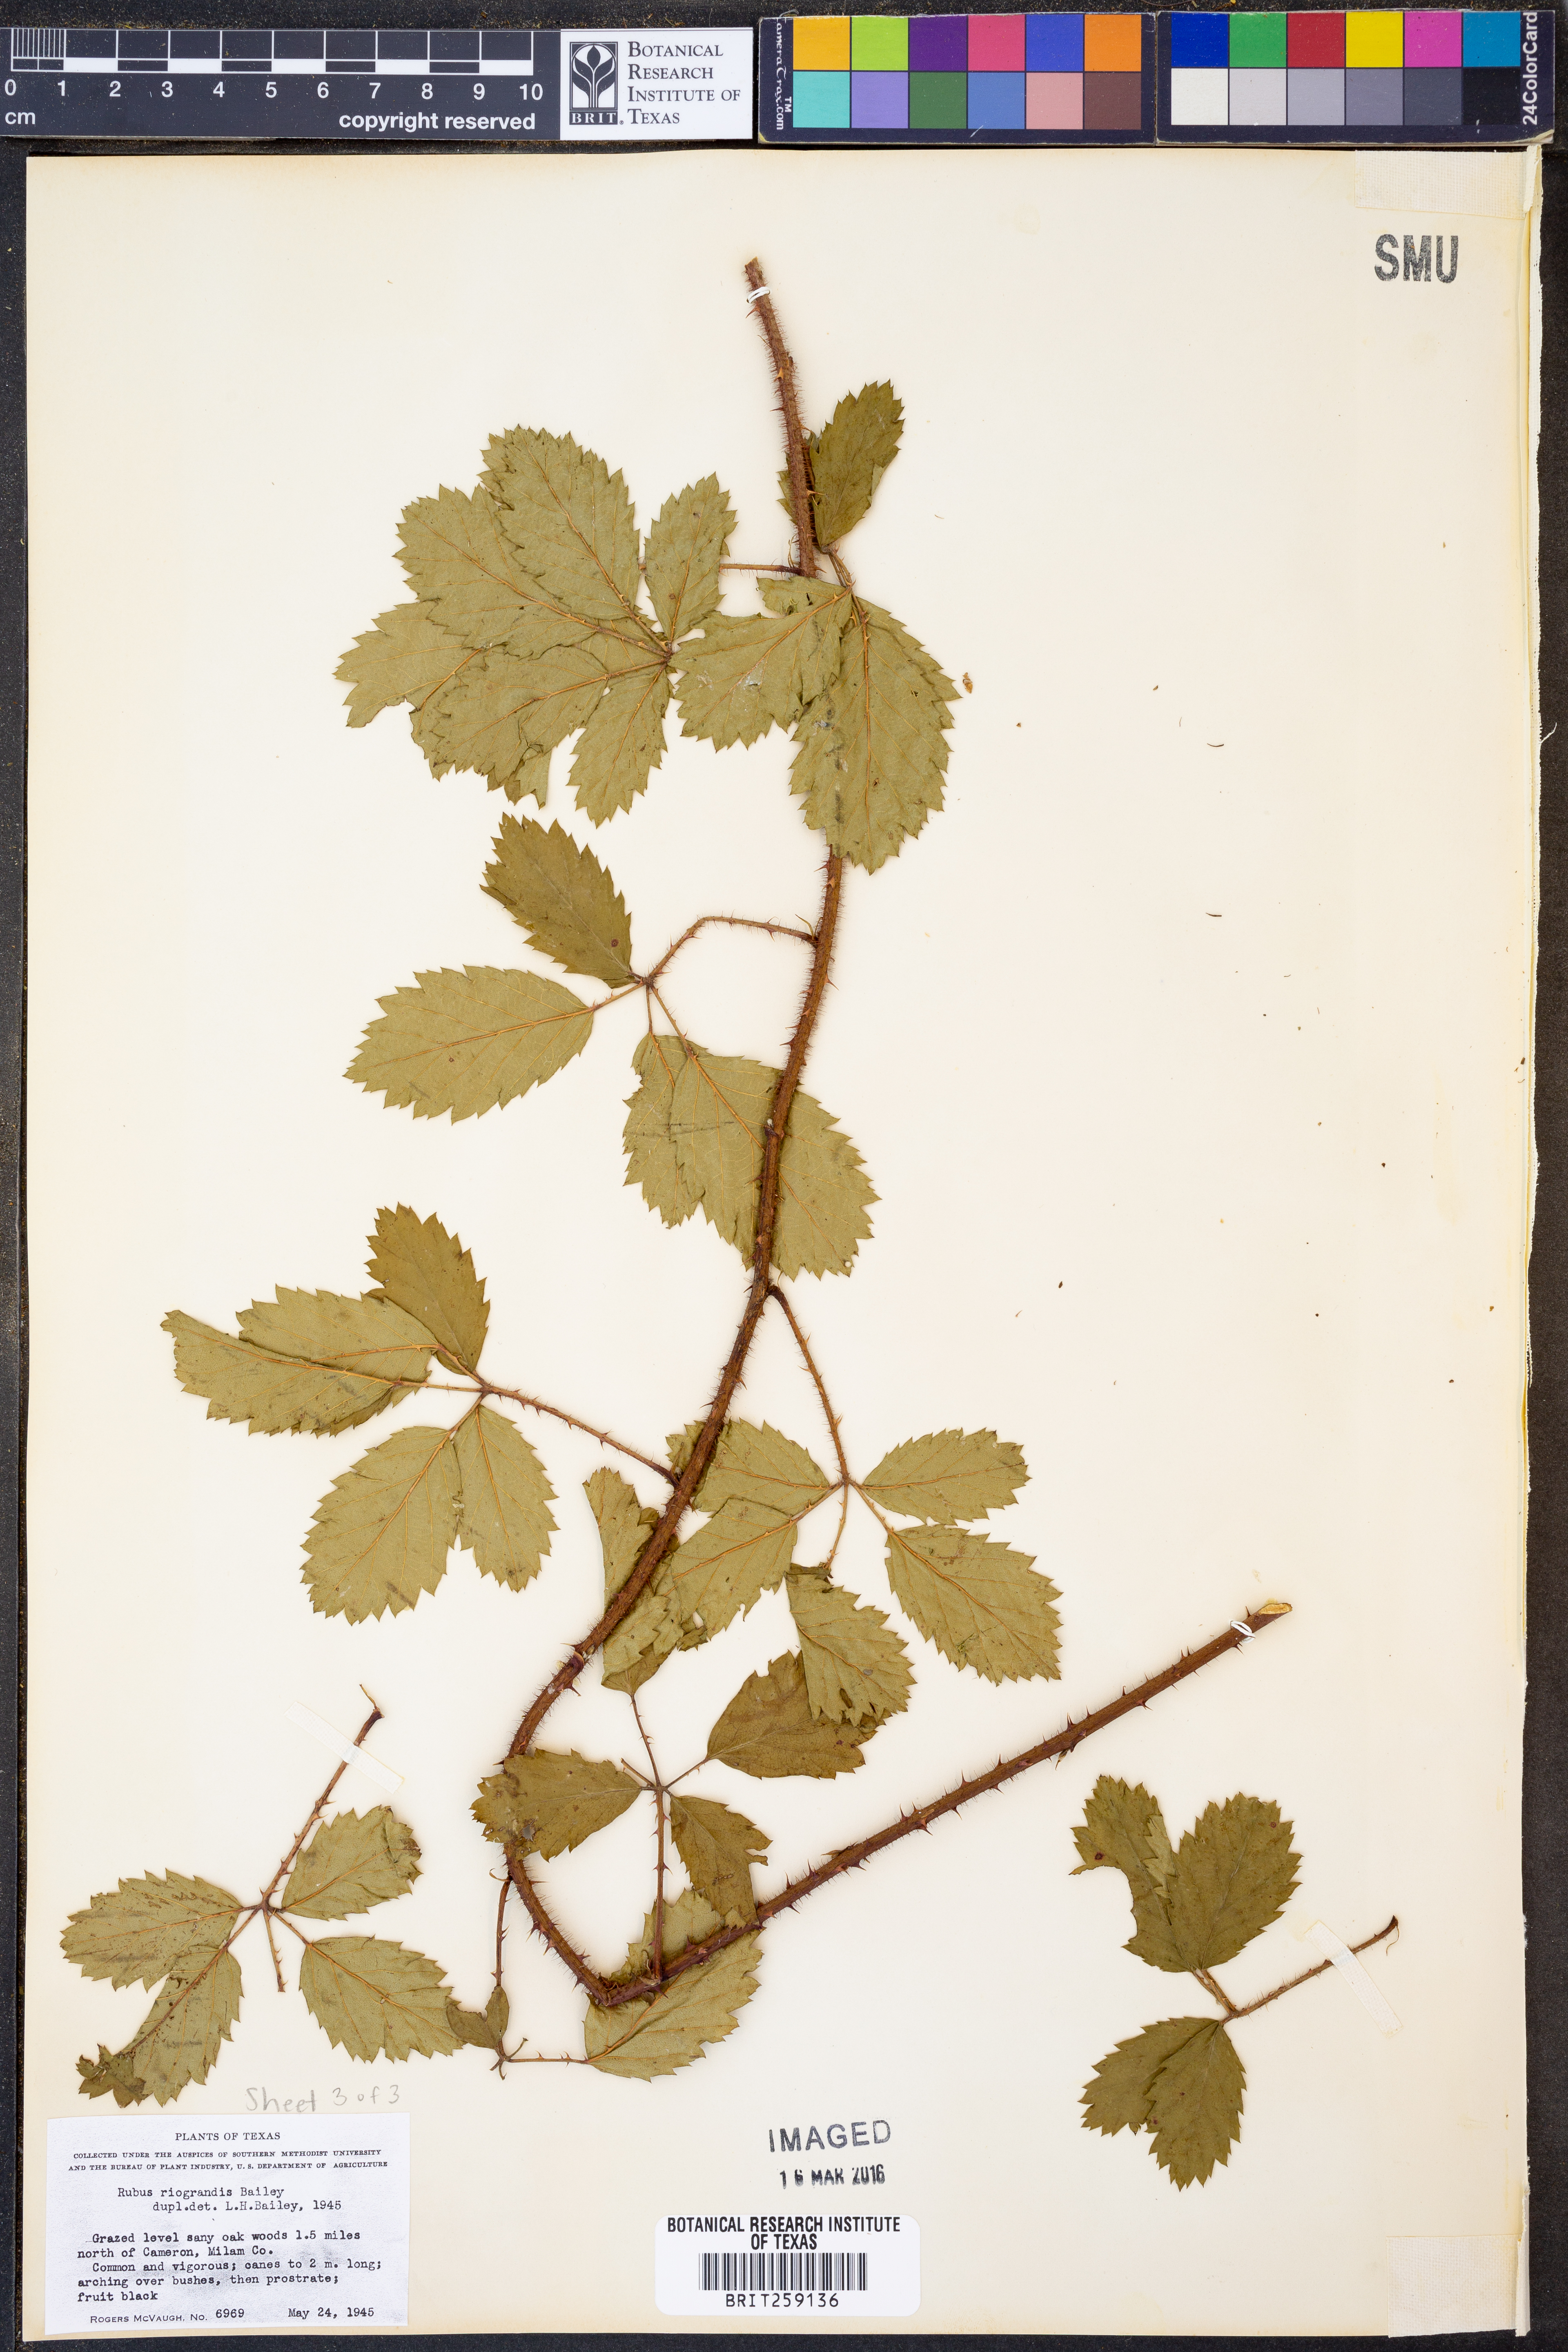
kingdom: Plantae
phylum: Tracheophyta
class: Magnoliopsida
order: Rosales
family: Rosaceae
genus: Rubus
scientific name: Rubus riograndis
